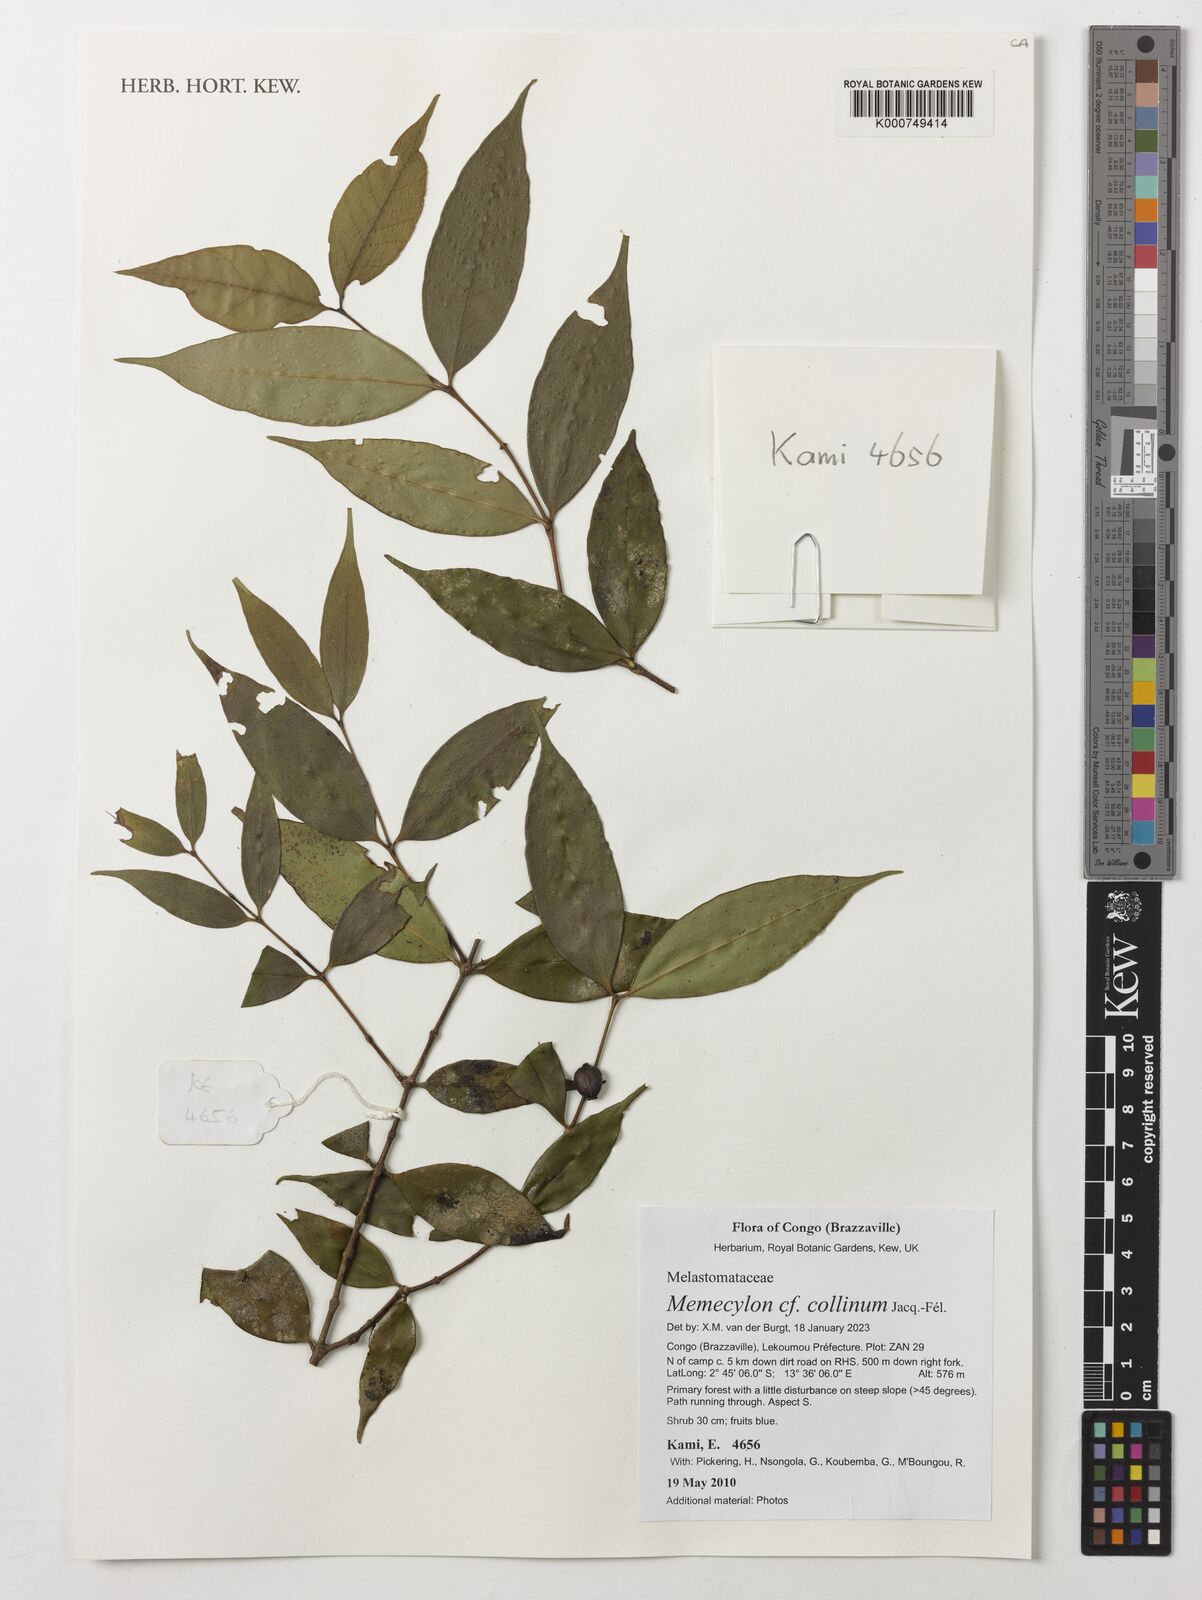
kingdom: Plantae
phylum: Tracheophyta
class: Magnoliopsida
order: Myrtales
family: Melastomataceae
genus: Memecylon
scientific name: Memecylon collinum
